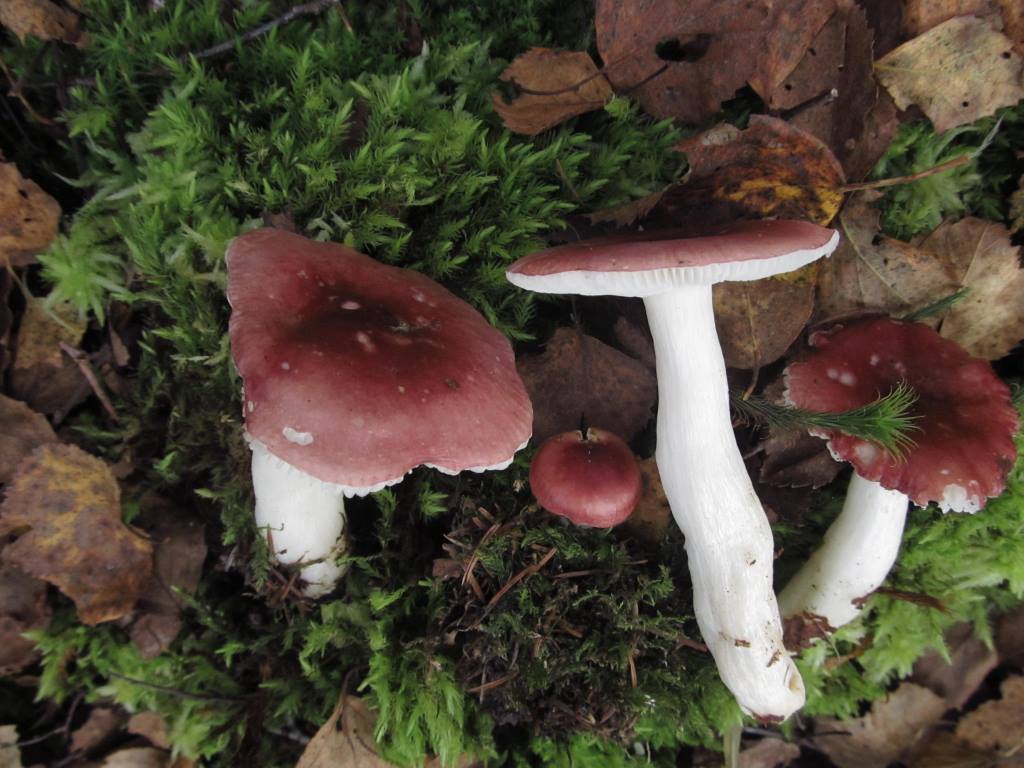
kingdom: Fungi
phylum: Basidiomycota
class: Agaricomycetes
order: Russulales
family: Russulaceae
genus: Russula
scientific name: Russula aquosa
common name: vand-skørhat
